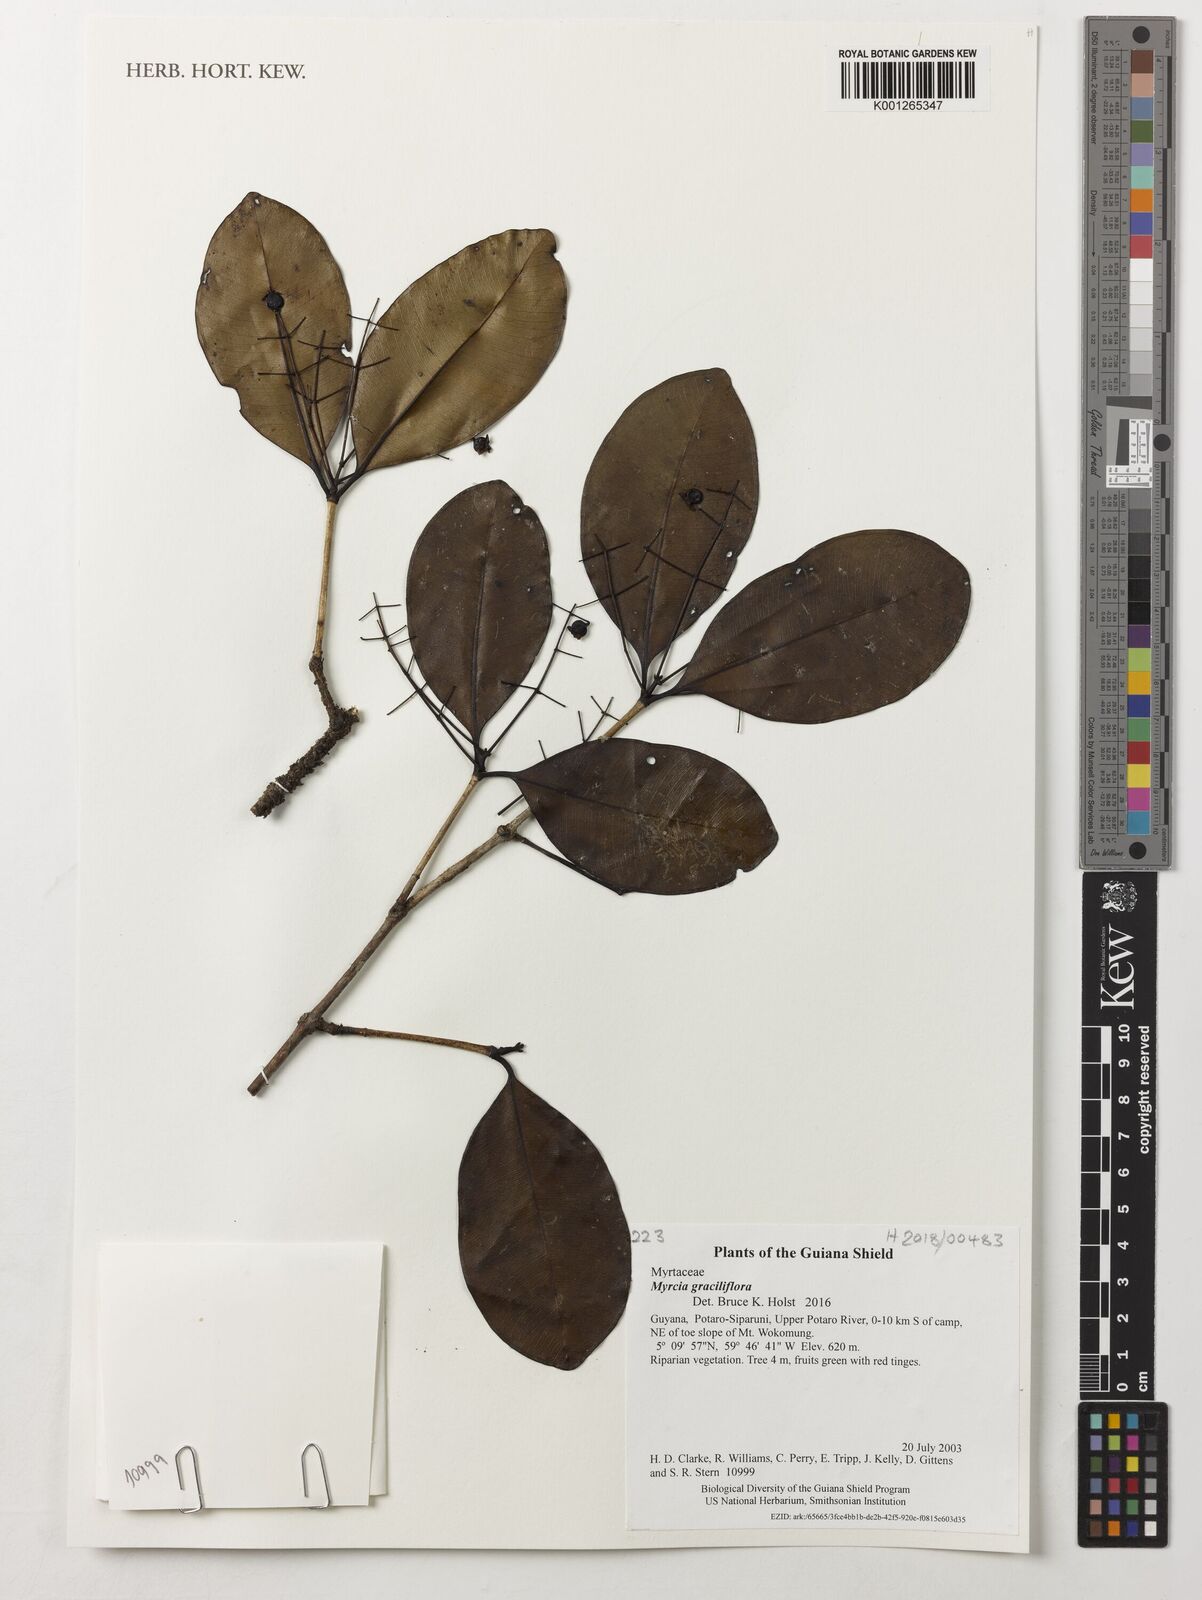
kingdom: Plantae
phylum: Tracheophyta
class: Magnoliopsida
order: Myrtales
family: Myrtaceae
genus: Myrcia
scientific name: Myrcia graciliflora
